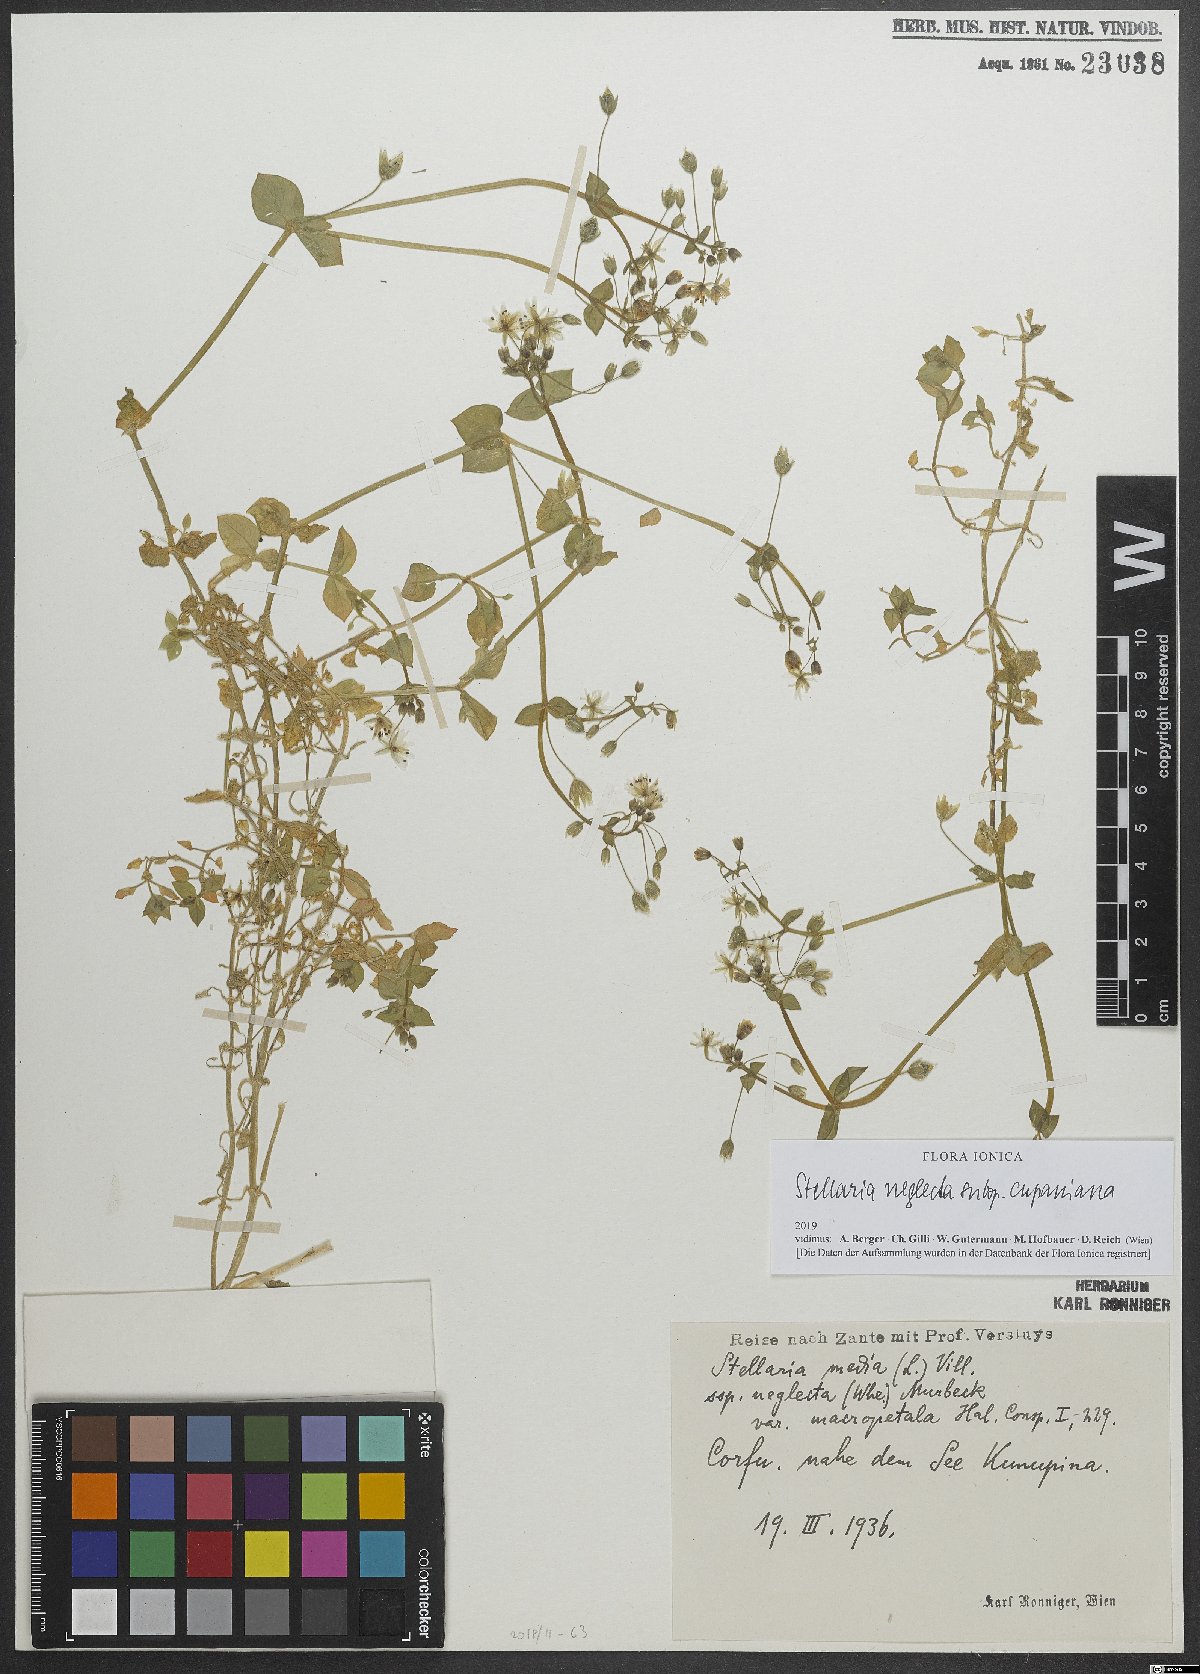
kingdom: Plantae
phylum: Tracheophyta
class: Magnoliopsida
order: Caryophyllales
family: Caryophyllaceae
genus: Stellaria
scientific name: Stellaria cupaniana
